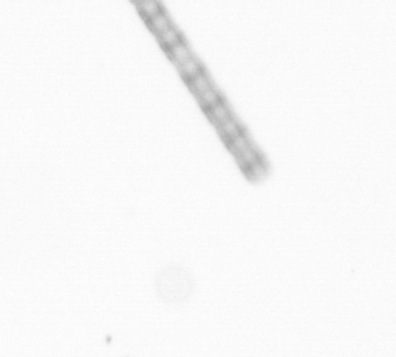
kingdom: Chromista
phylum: Ochrophyta
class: Bacillariophyceae
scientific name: Bacillariophyceae
